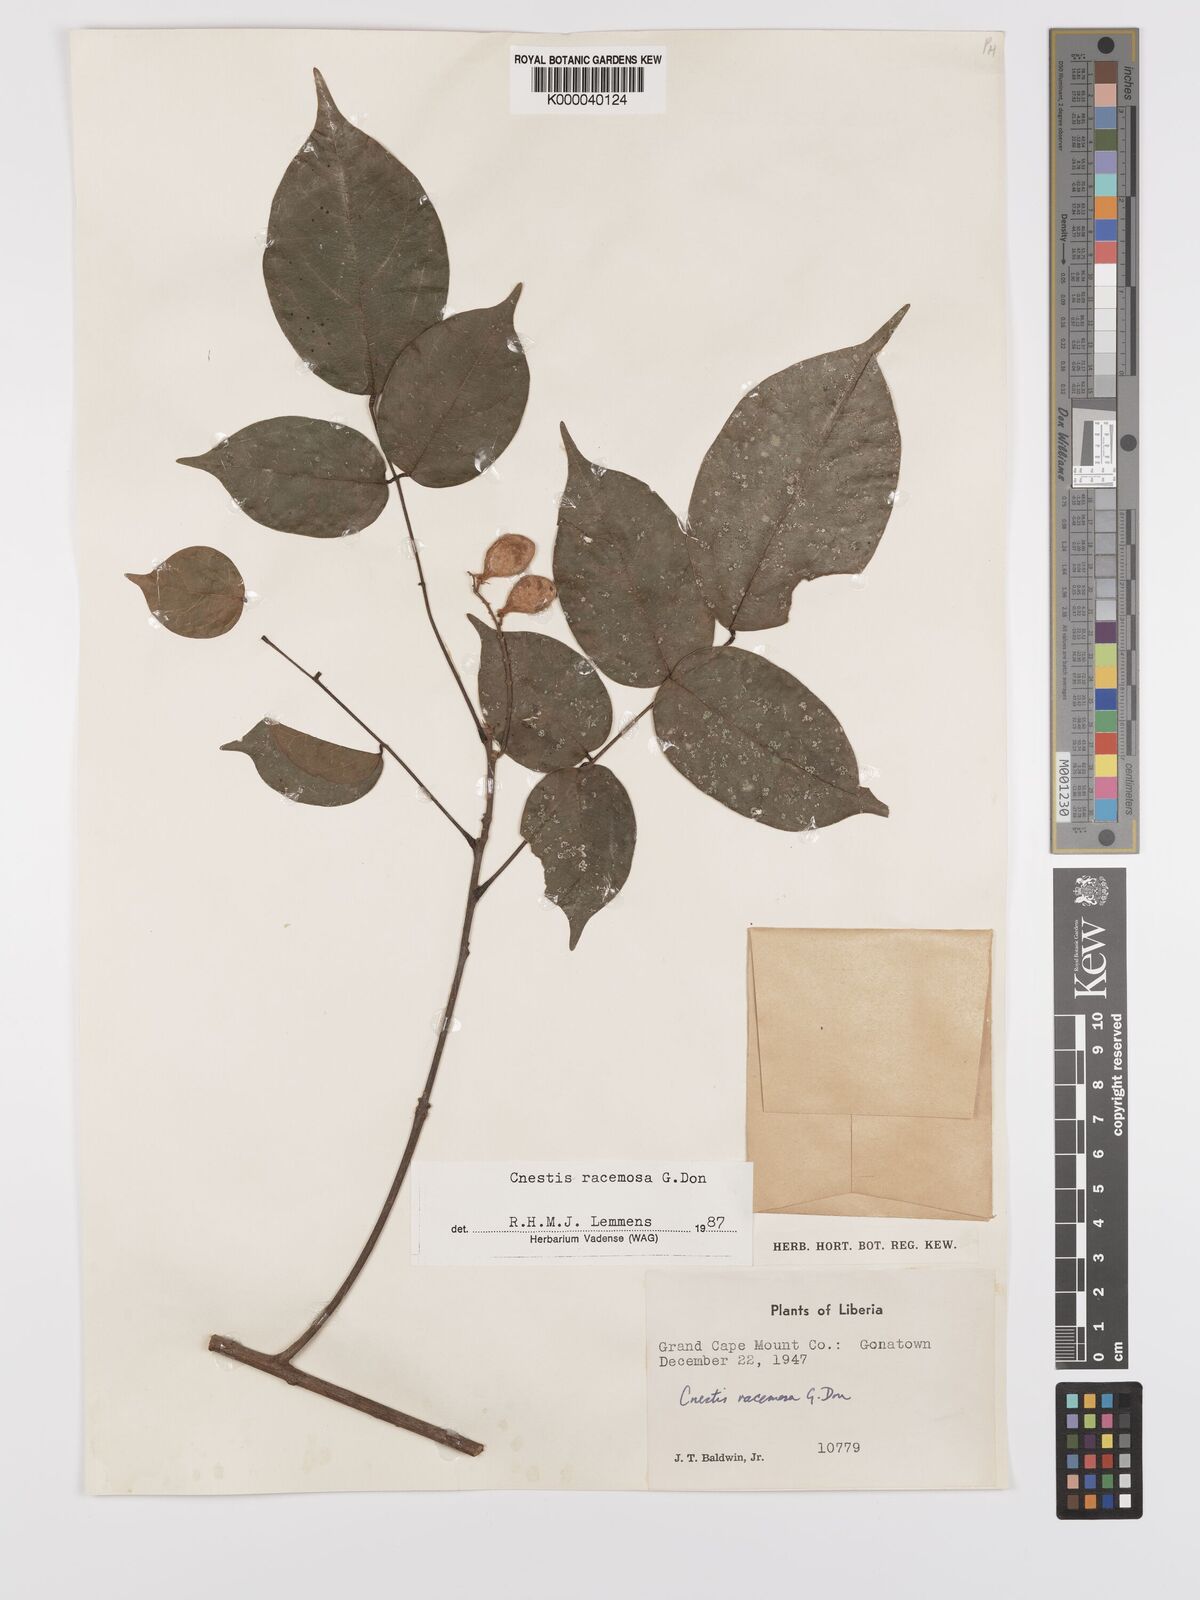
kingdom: Plantae
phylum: Tracheophyta
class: Magnoliopsida
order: Oxalidales
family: Connaraceae
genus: Cnestis
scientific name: Cnestis racemosa
